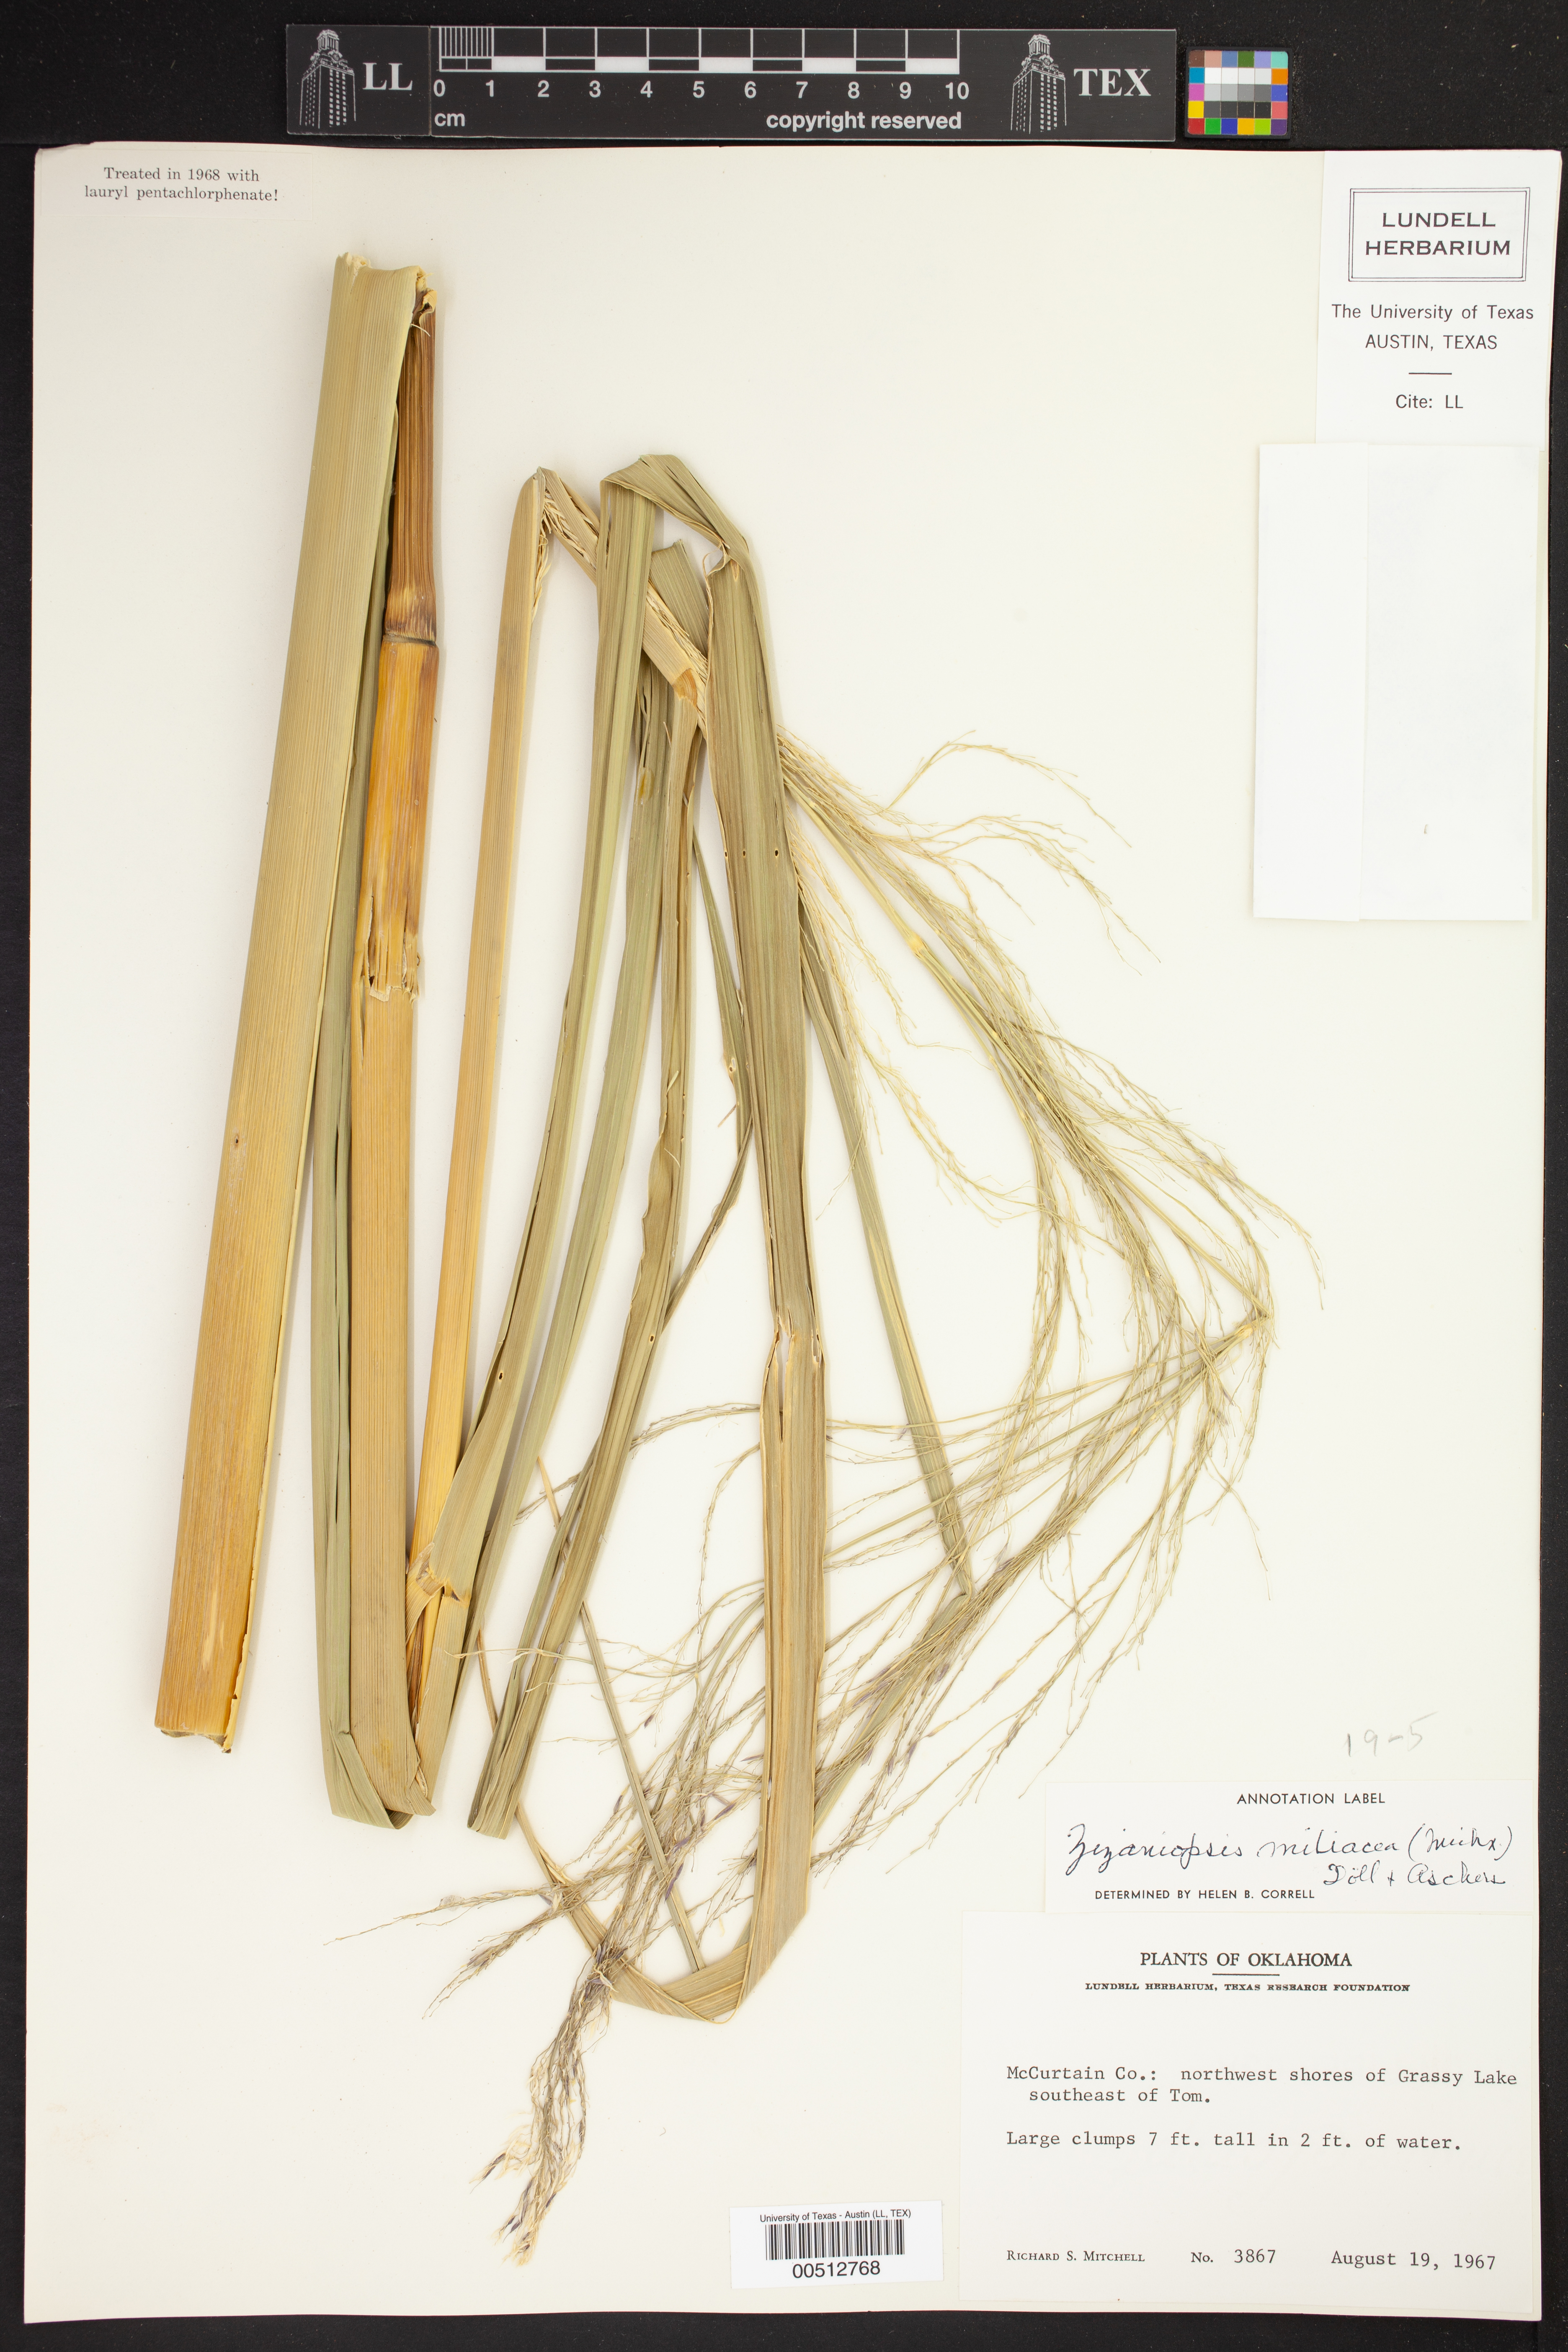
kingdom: Plantae
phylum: Tracheophyta
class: Liliopsida
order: Poales
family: Poaceae
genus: Zizaniopsis
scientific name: Zizaniopsis miliacea
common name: Giant-cutgrass
